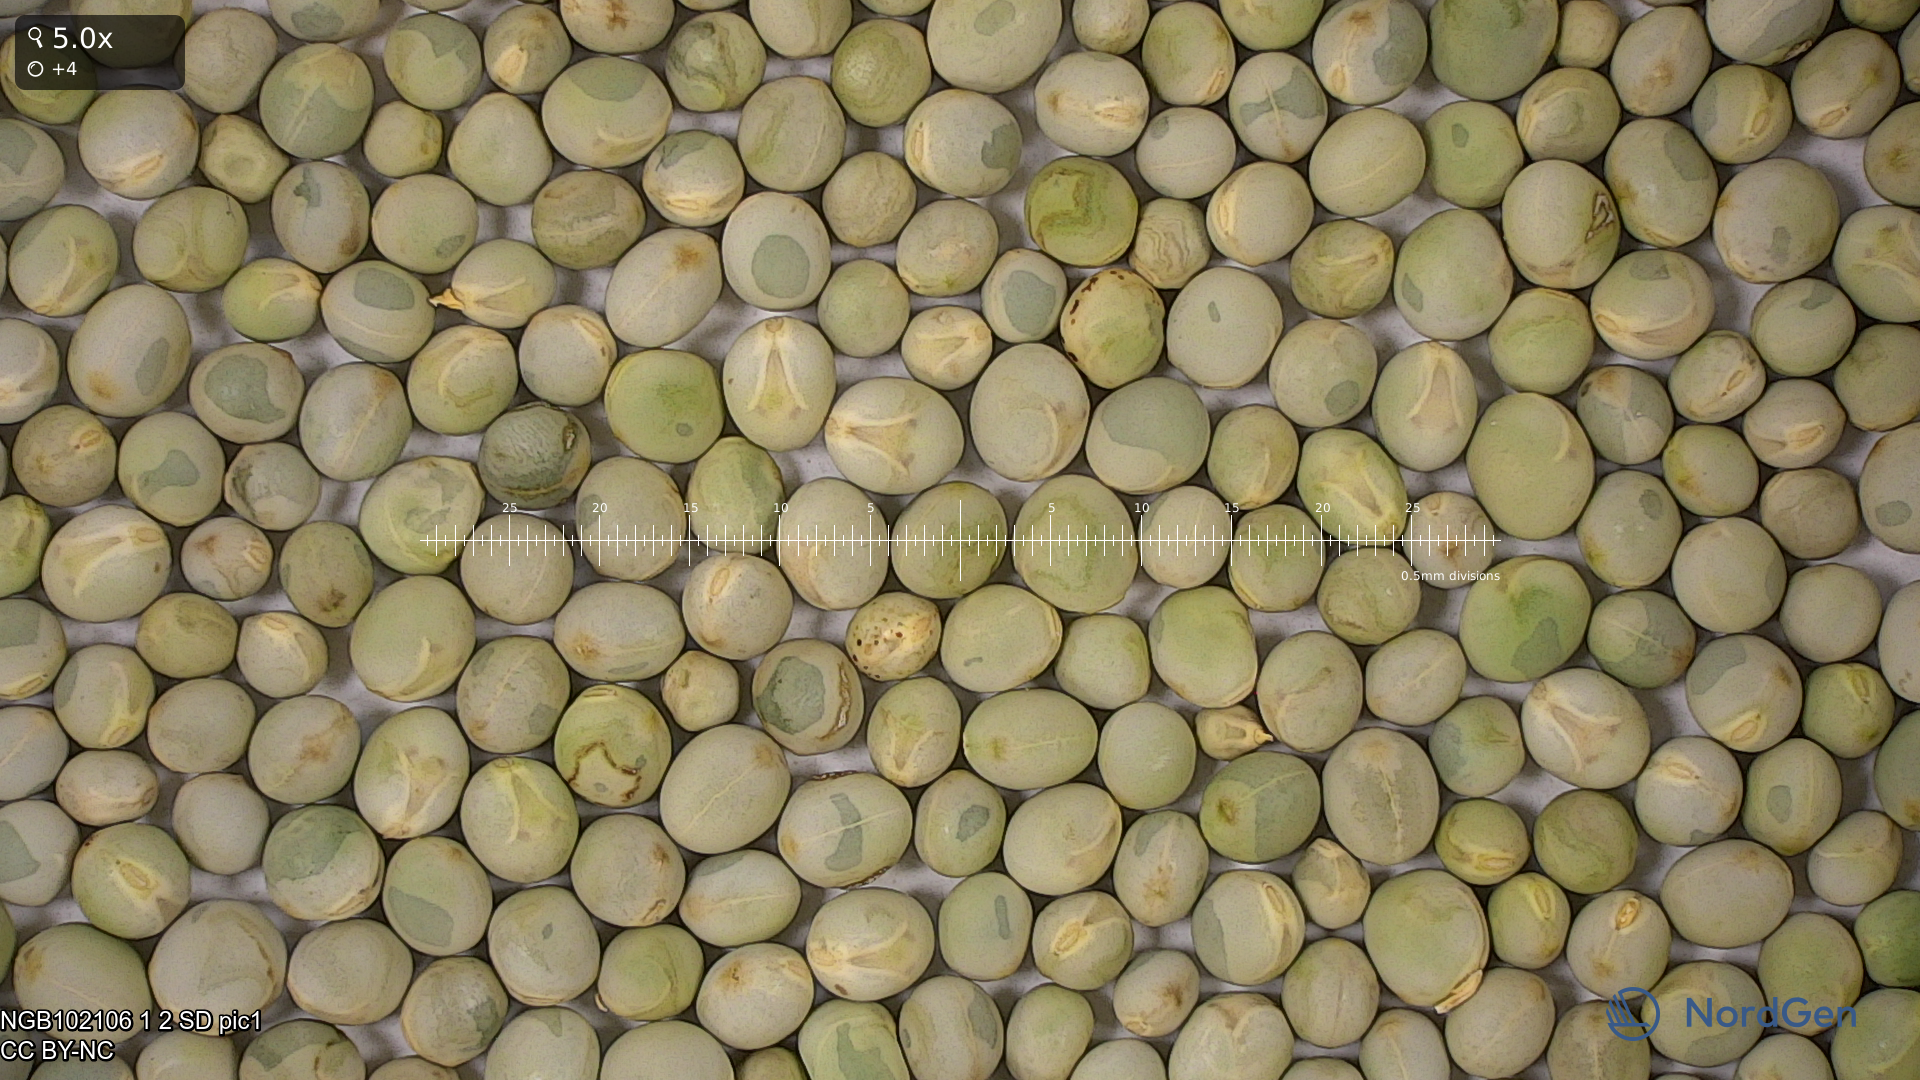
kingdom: Plantae
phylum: Tracheophyta
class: Magnoliopsida
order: Fabales
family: Fabaceae
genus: Lathyrus
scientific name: Lathyrus oleraceus
